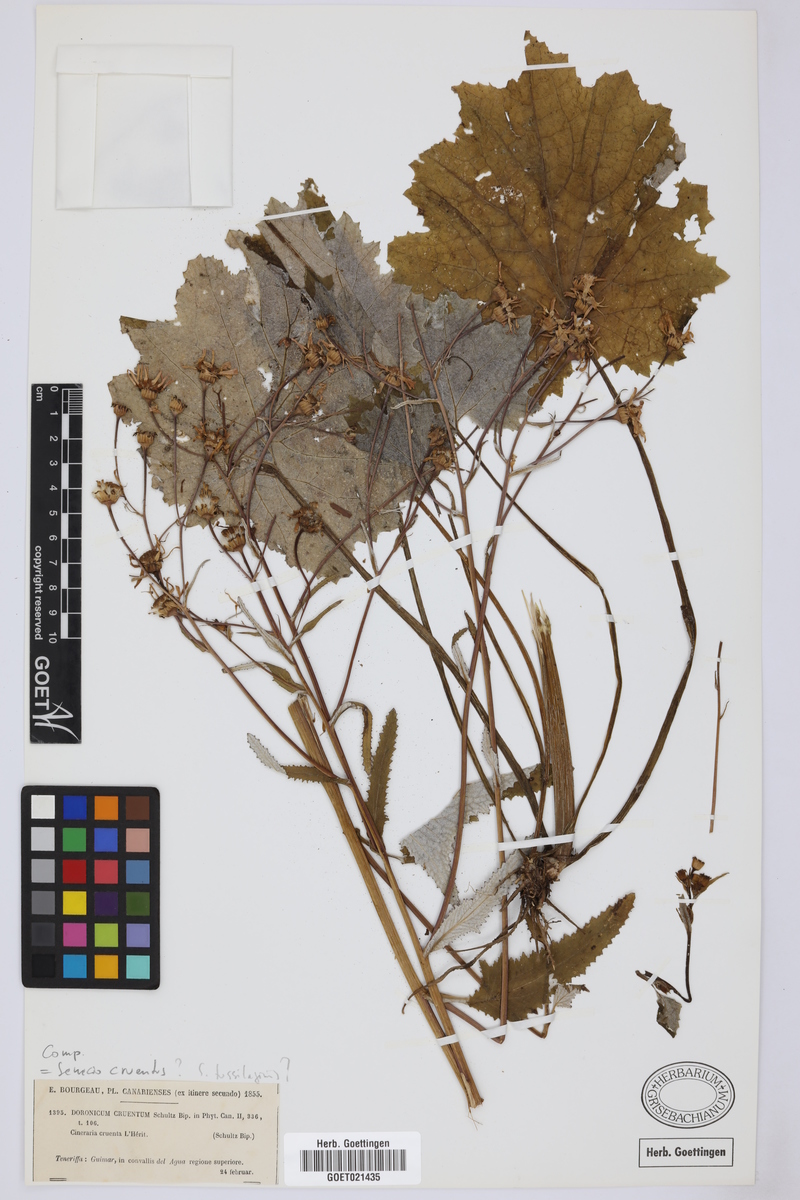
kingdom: Plantae
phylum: Tracheophyta
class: Magnoliopsida
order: Asterales
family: Asteraceae
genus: Pericallis
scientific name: Pericallis tussilaginis
